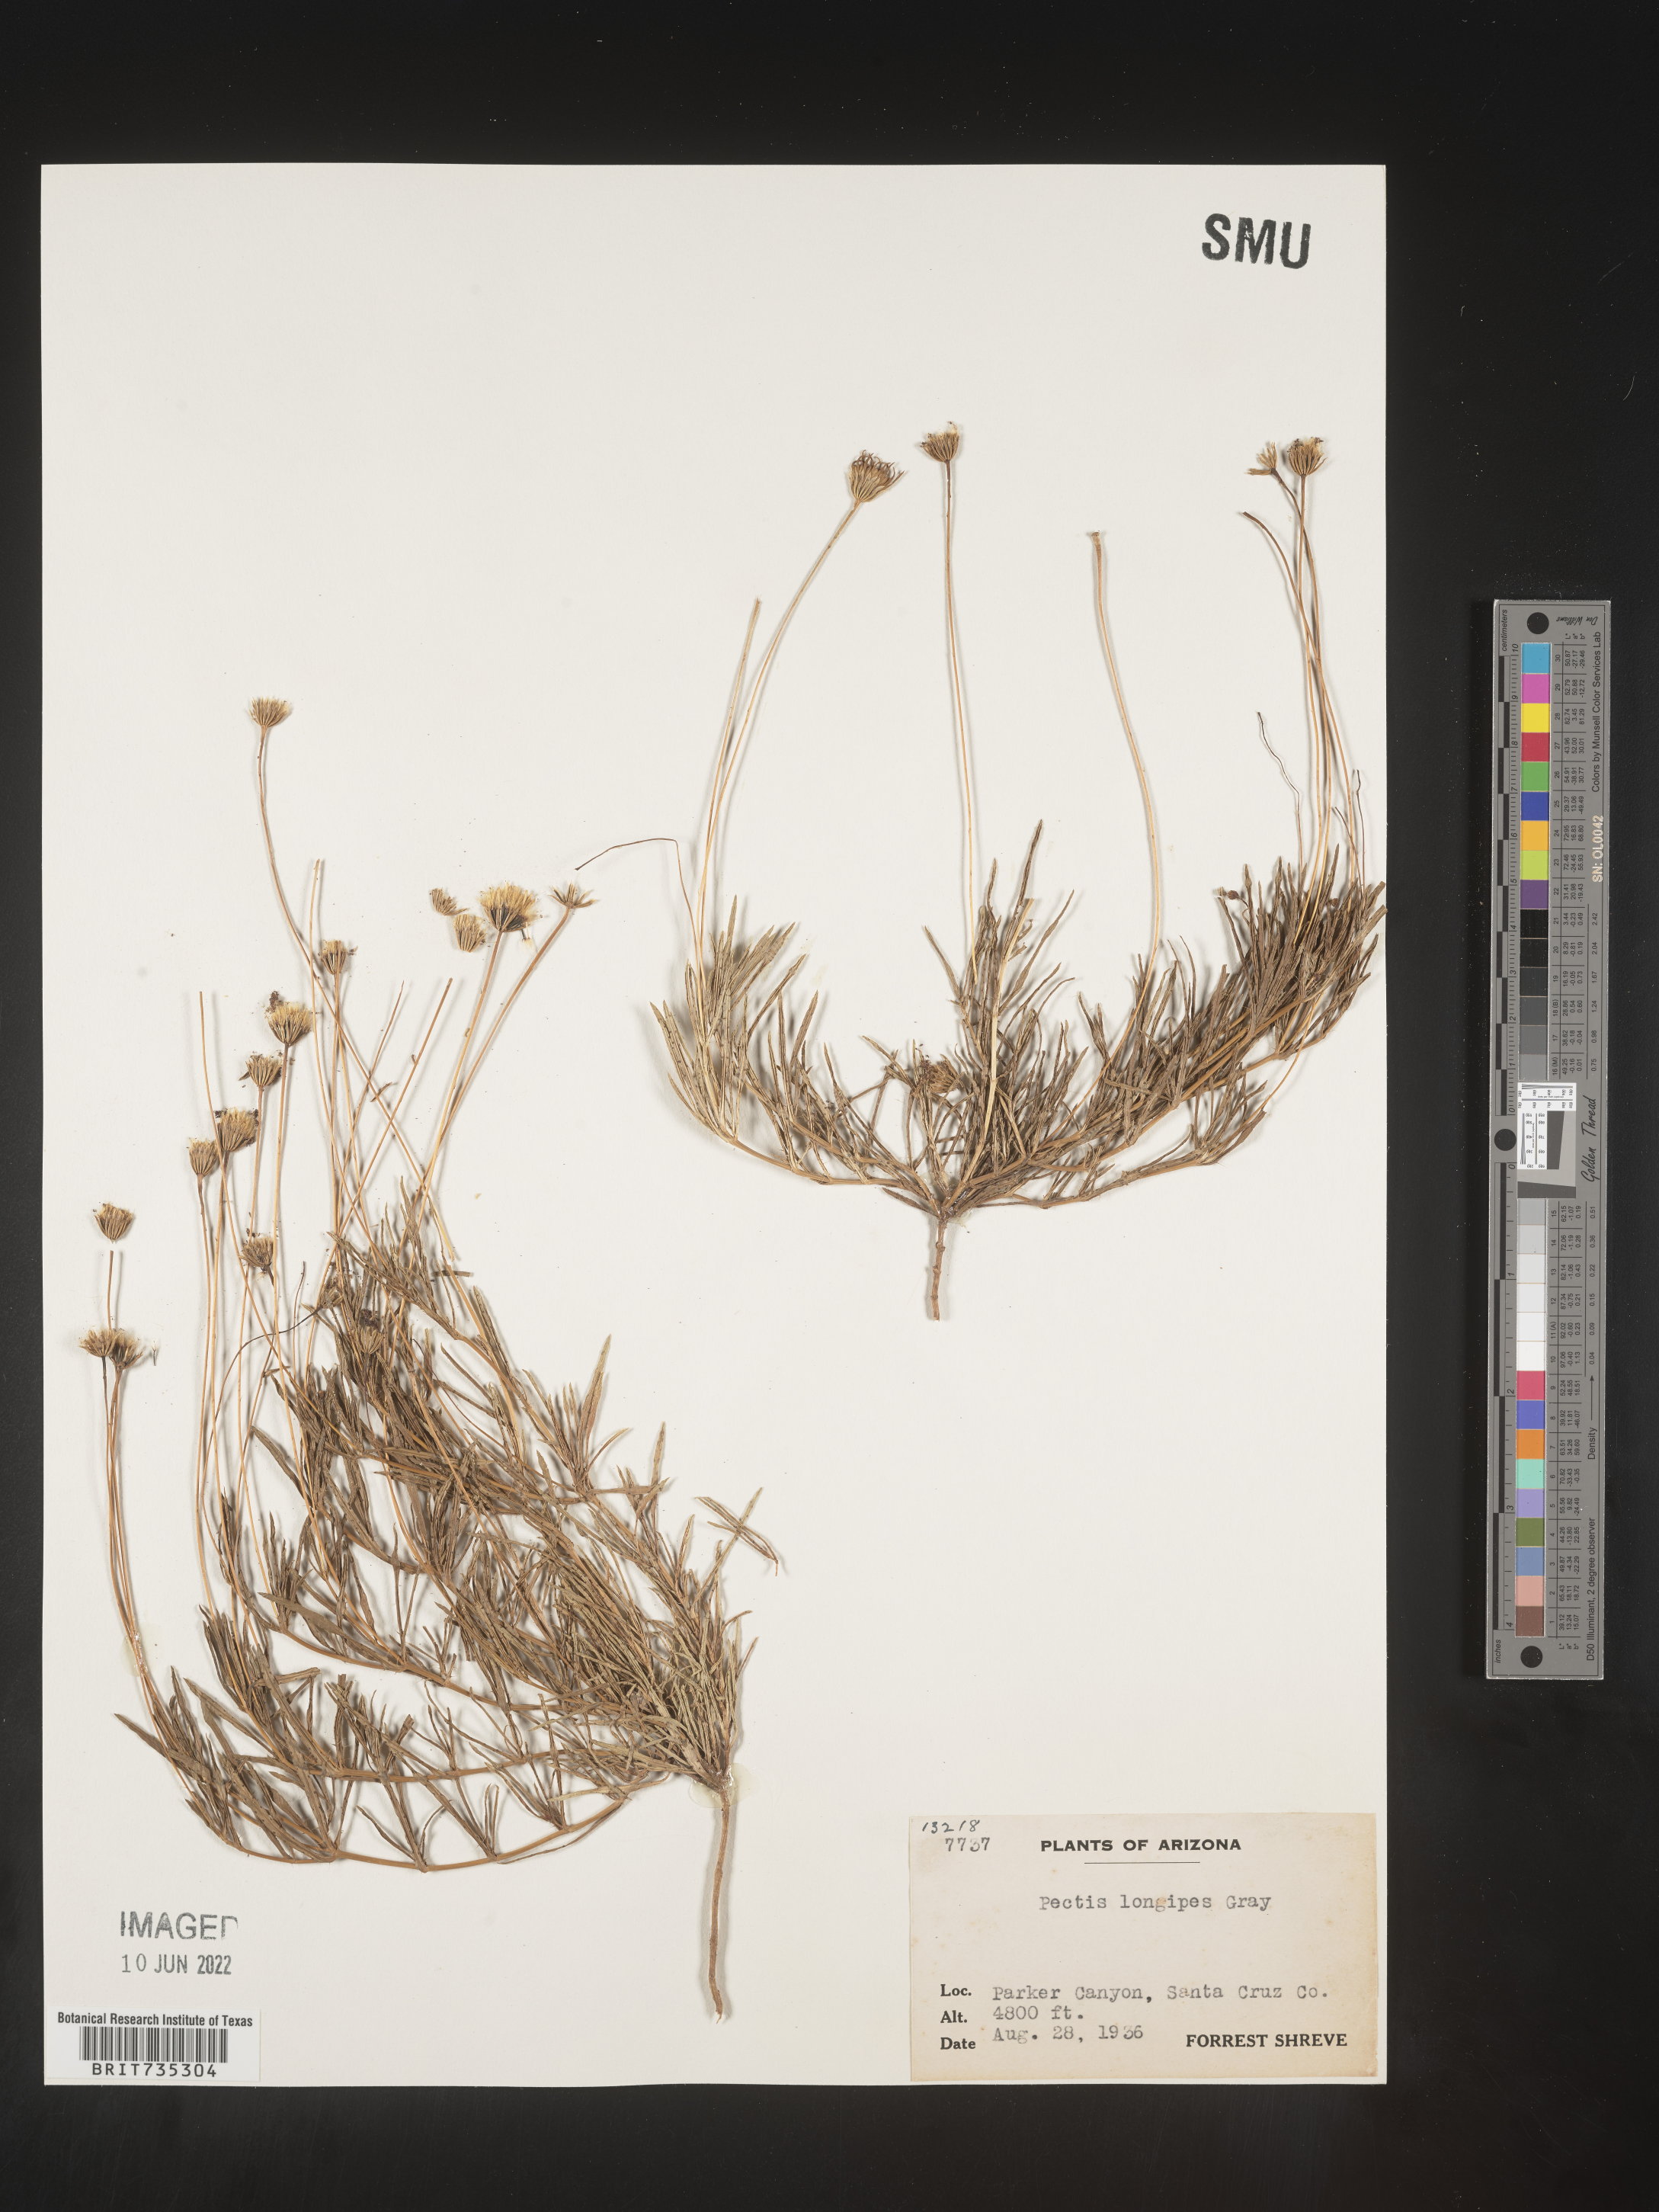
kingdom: Plantae
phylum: Tracheophyta
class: Magnoliopsida
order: Asterales
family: Asteraceae
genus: Pectis
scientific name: Pectis longipes
